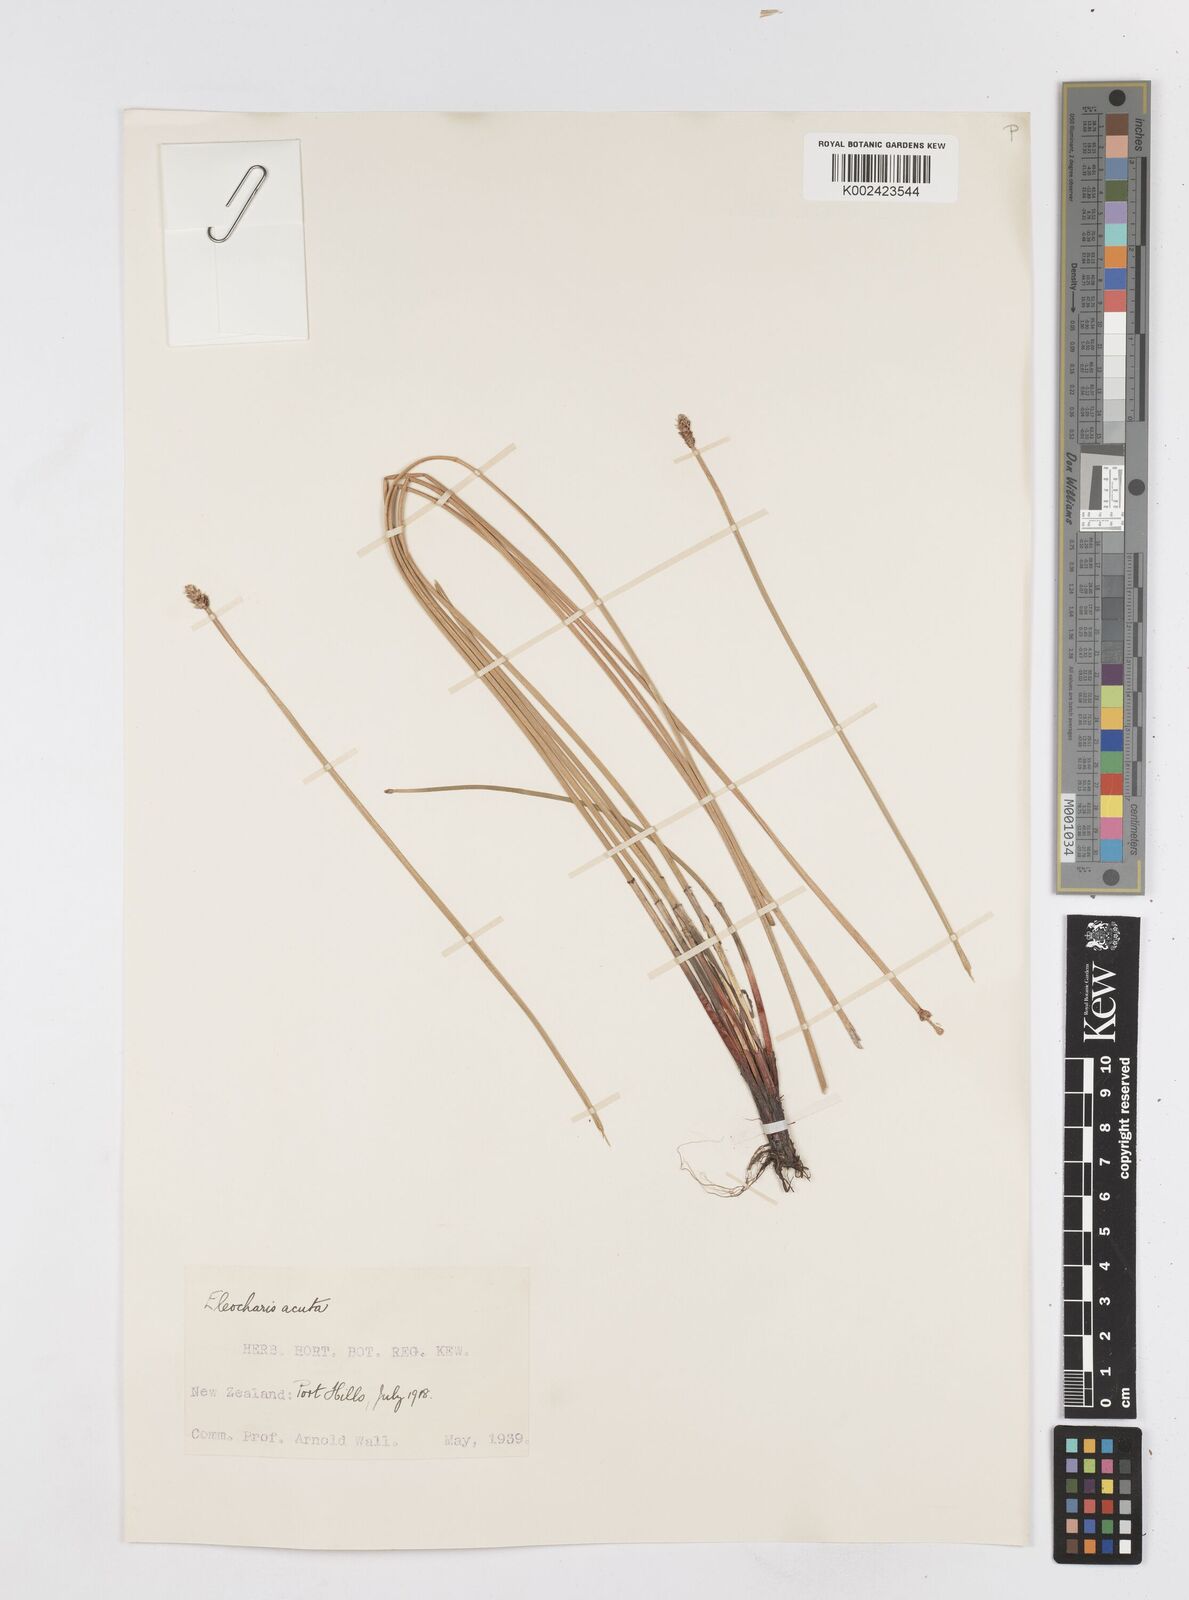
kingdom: Plantae
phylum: Tracheophyta
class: Liliopsida
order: Poales
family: Cyperaceae
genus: Eleocharis
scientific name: Eleocharis acuta
